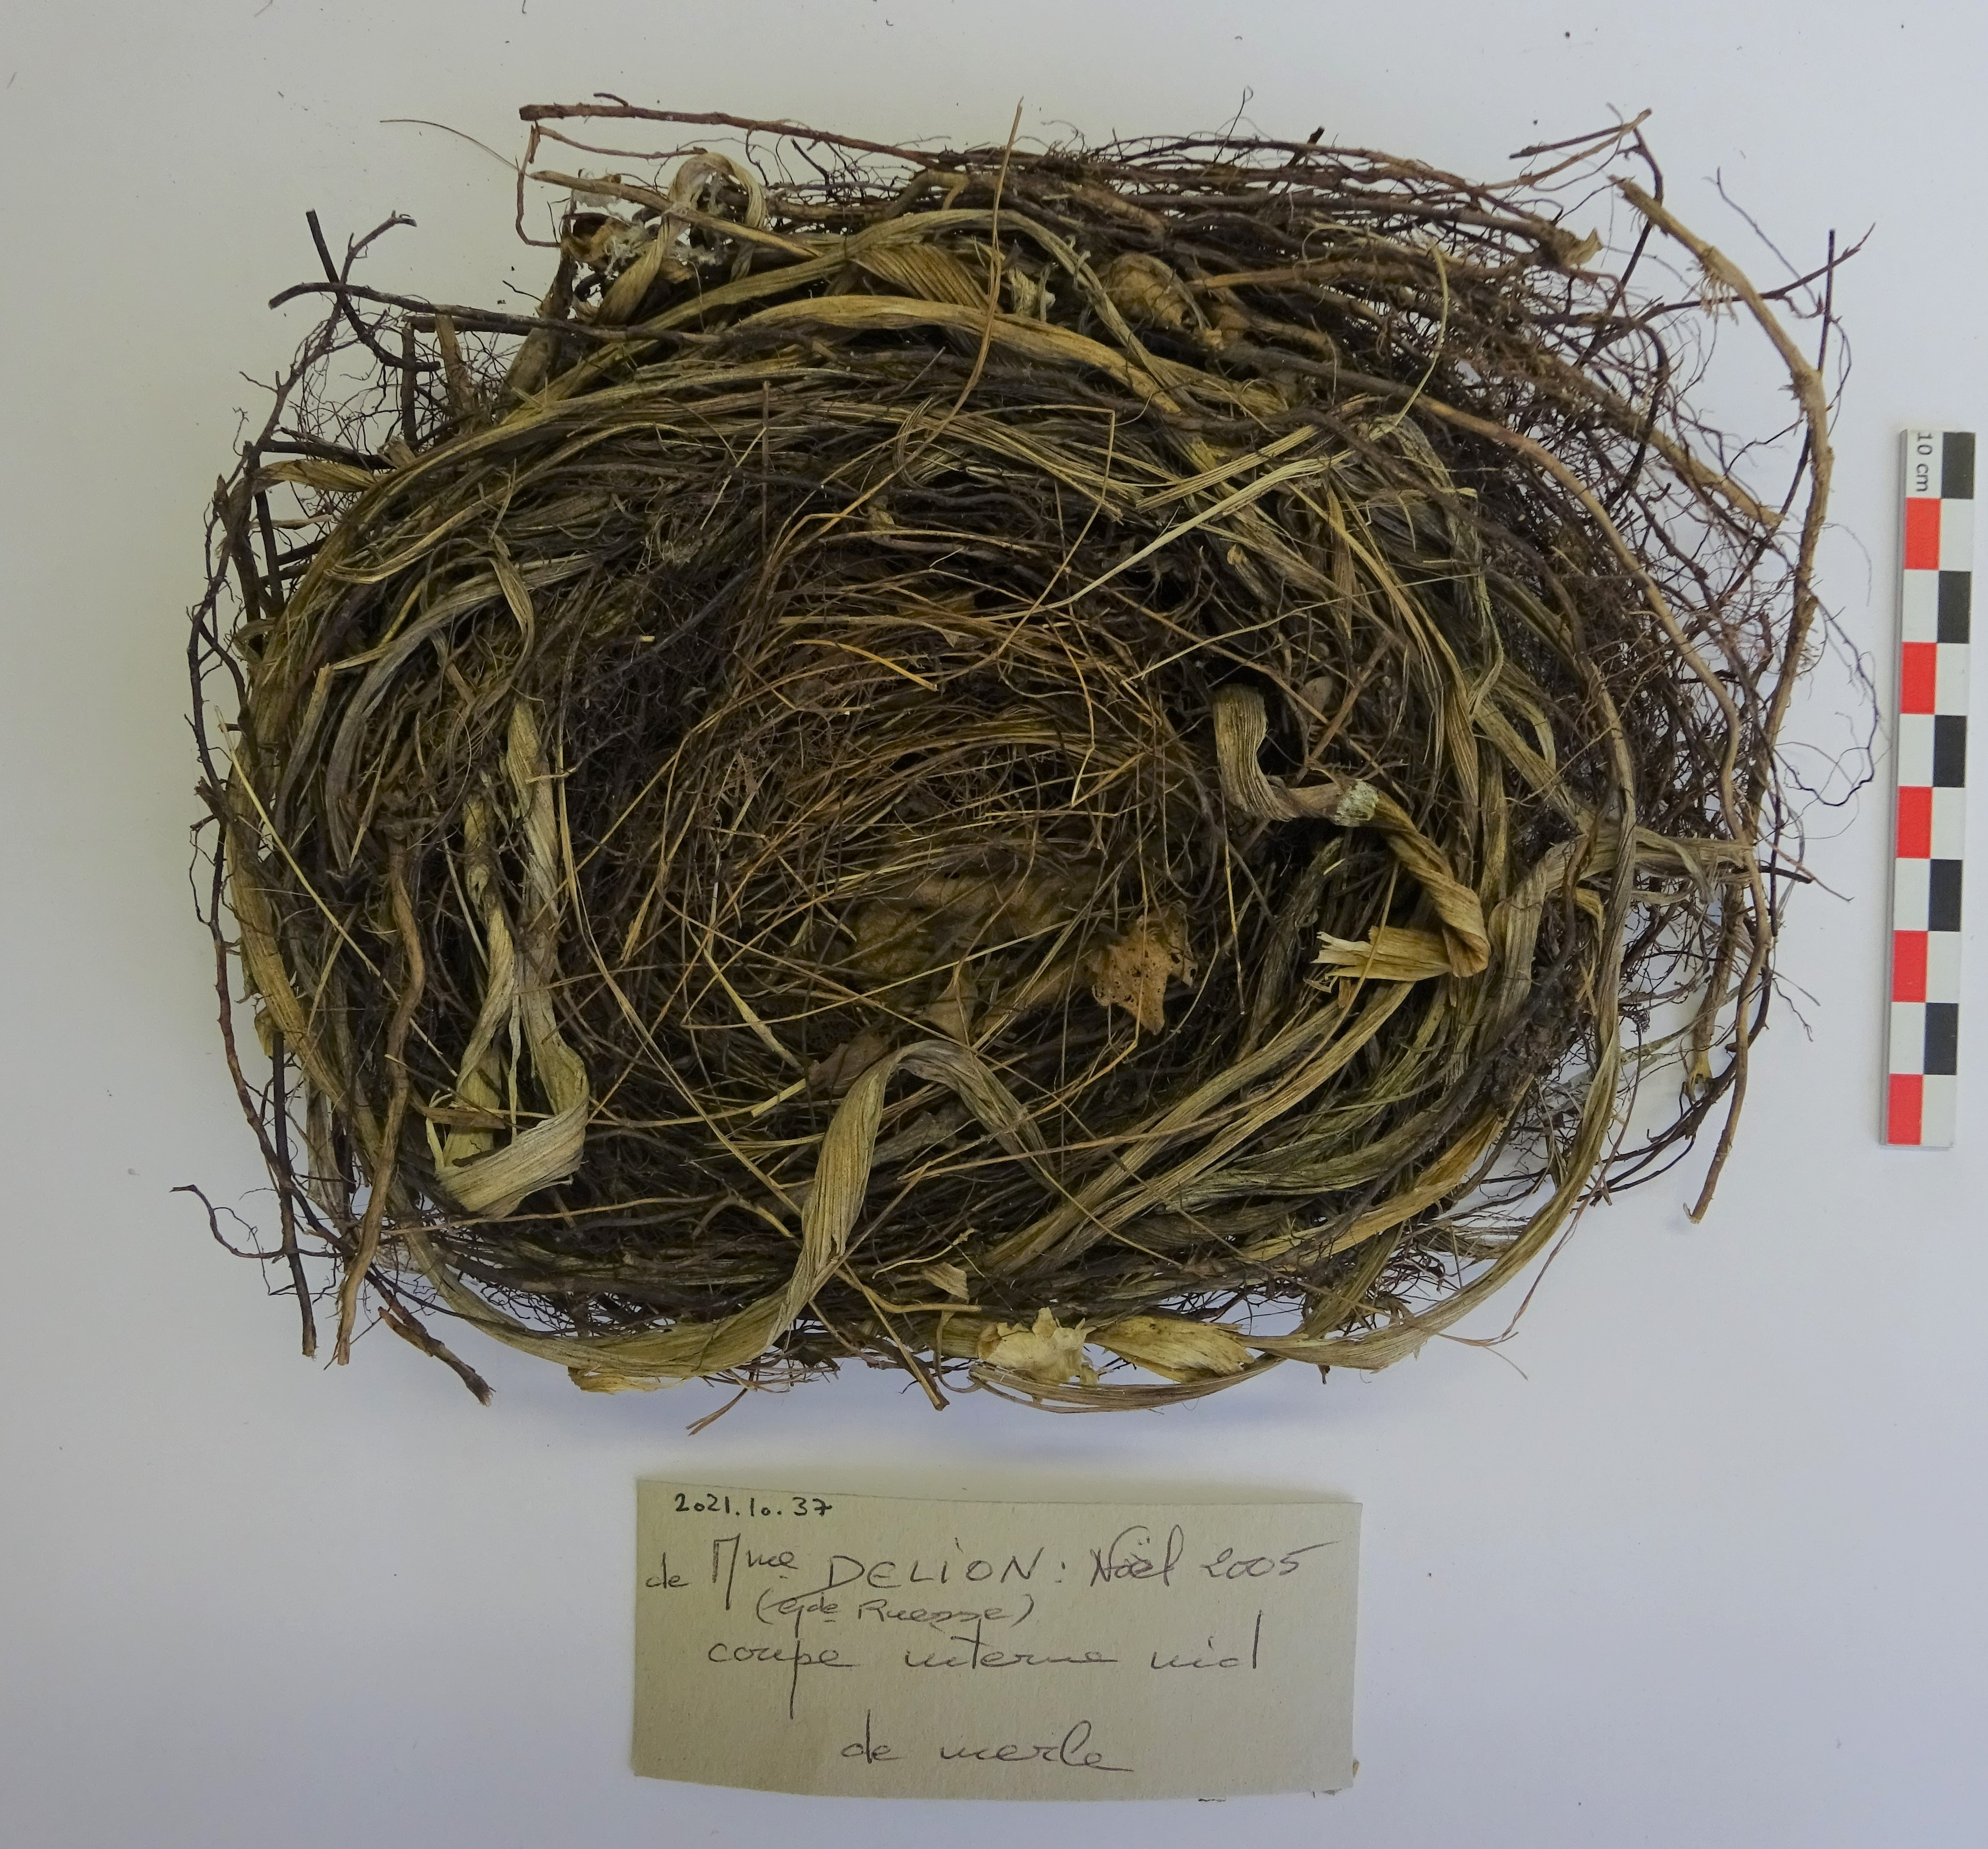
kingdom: Animalia
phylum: Chordata
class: Aves
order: Passeriformes
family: Turdidae
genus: Turdus
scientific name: Turdus merula
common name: Common blackbird
